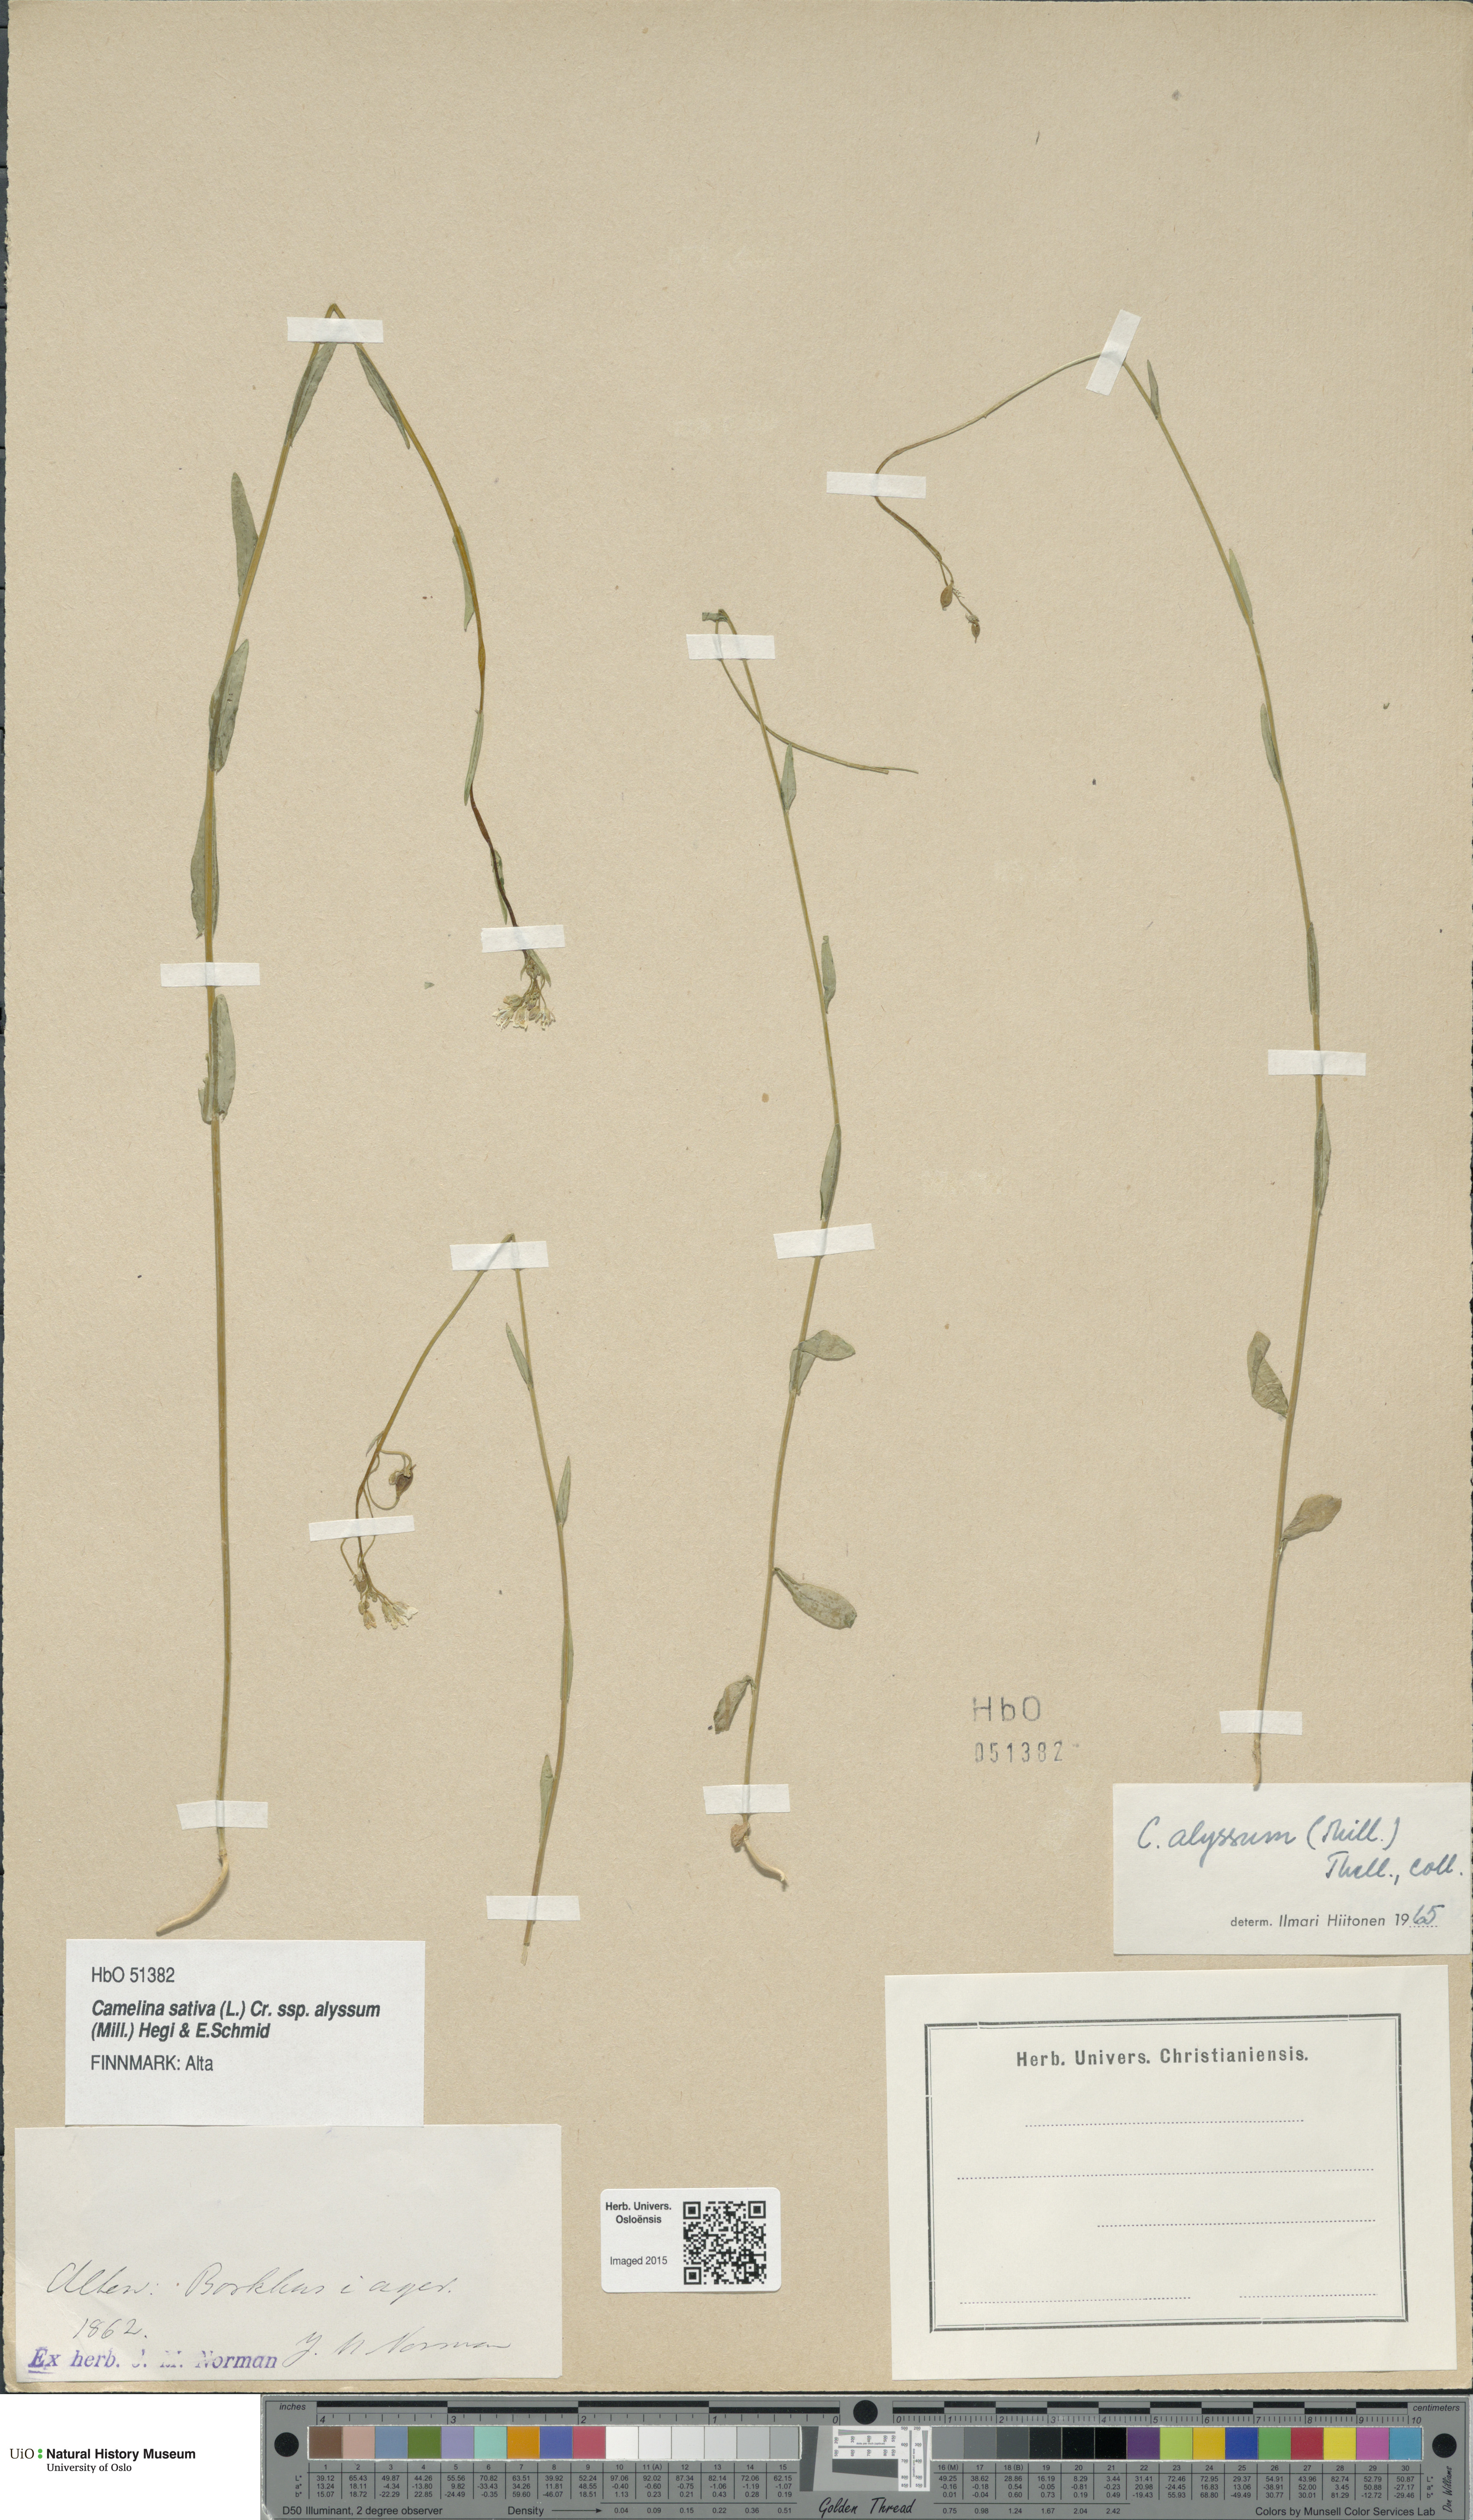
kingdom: Plantae
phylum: Tracheophyta
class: Magnoliopsida
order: Brassicales
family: Brassicaceae
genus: Camelina
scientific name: Camelina alyssum
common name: Gold-of-pleasure
